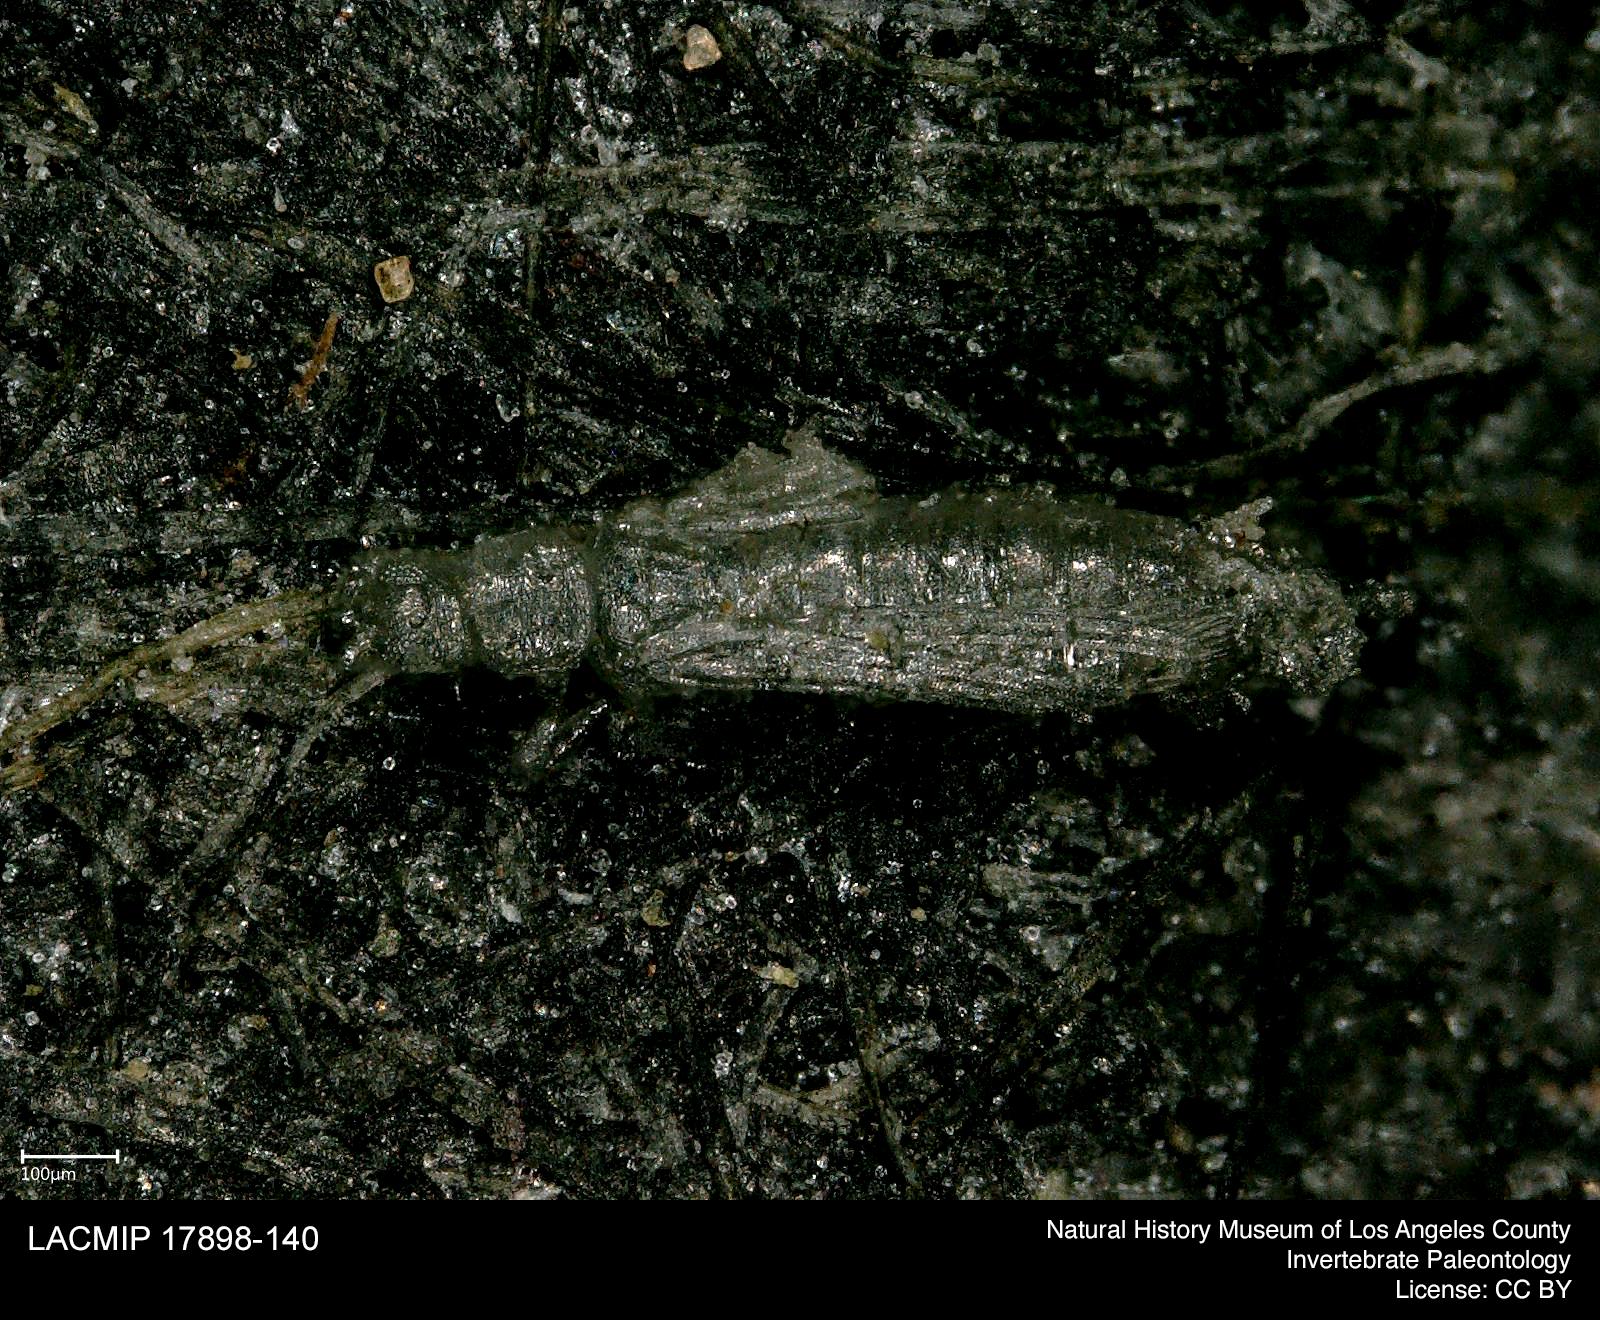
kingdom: Animalia
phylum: Arthropoda
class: Insecta
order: Thysanoptera
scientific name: Thysanoptera
